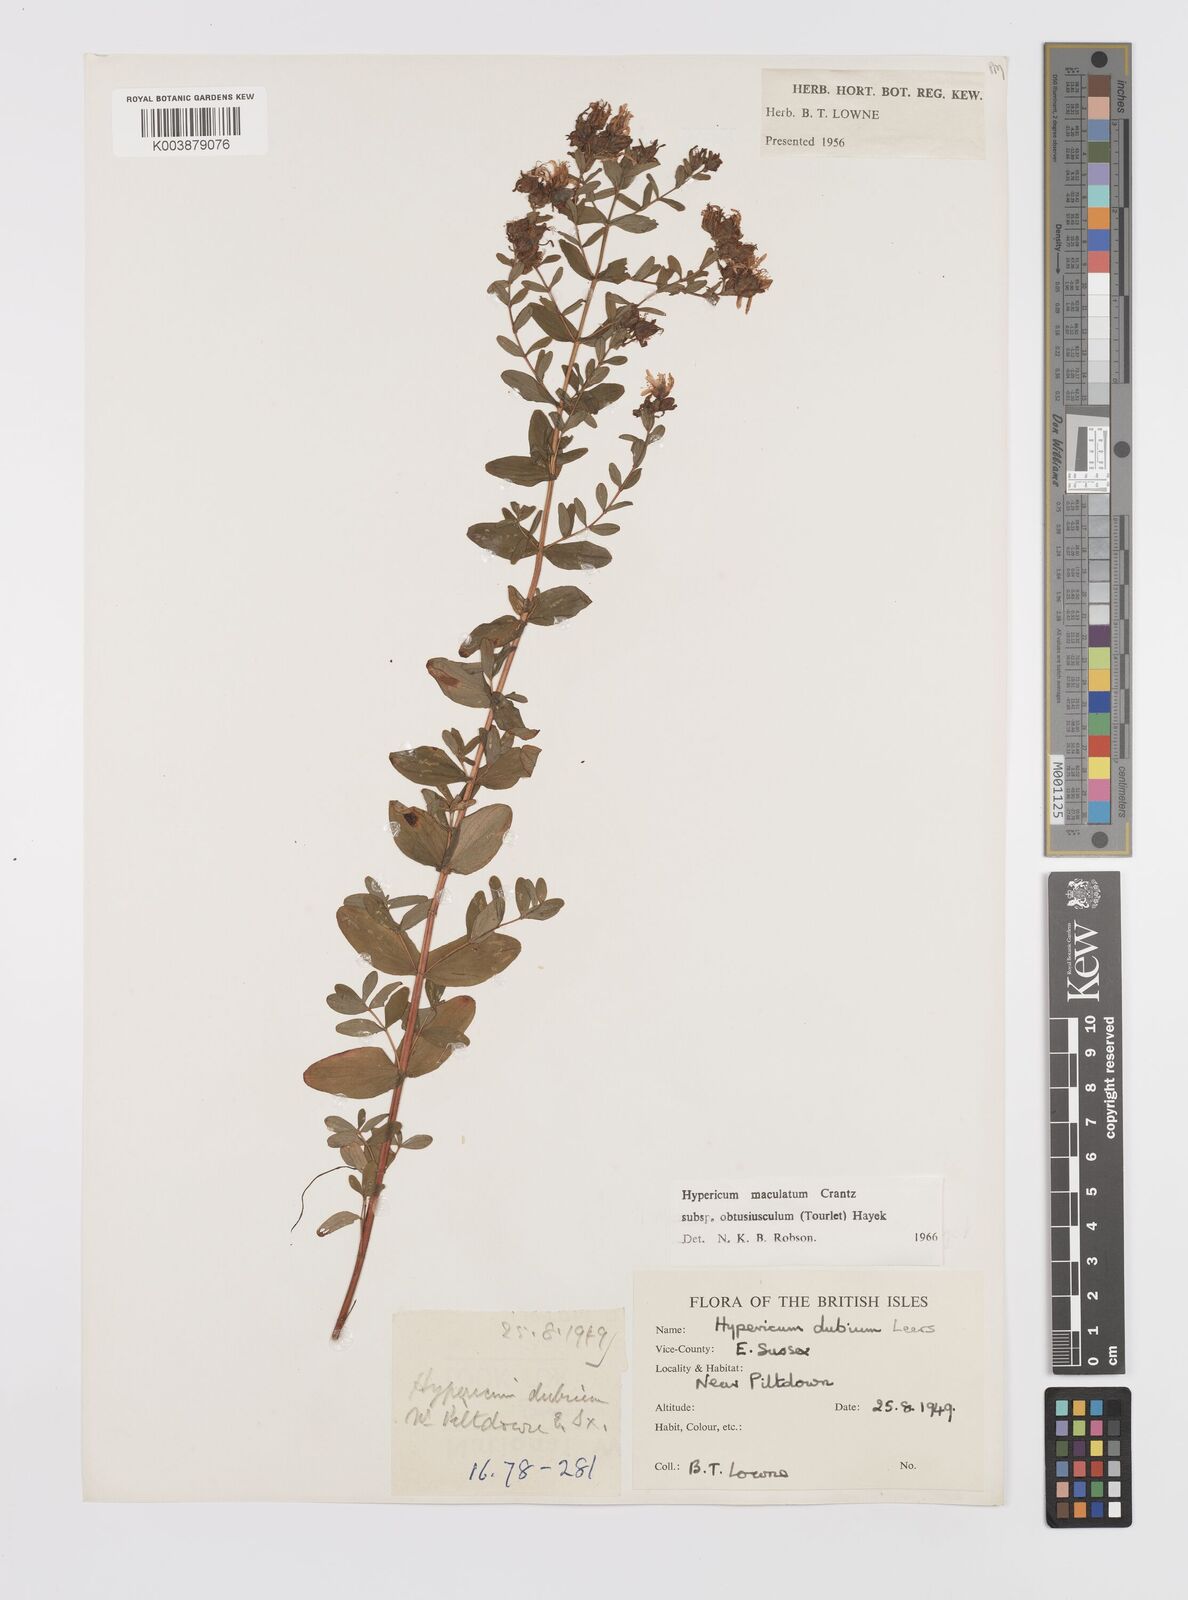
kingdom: Plantae
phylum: Tracheophyta
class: Magnoliopsida
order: Malpighiales
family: Hypericaceae
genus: Hypericum
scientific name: Hypericum dubium
